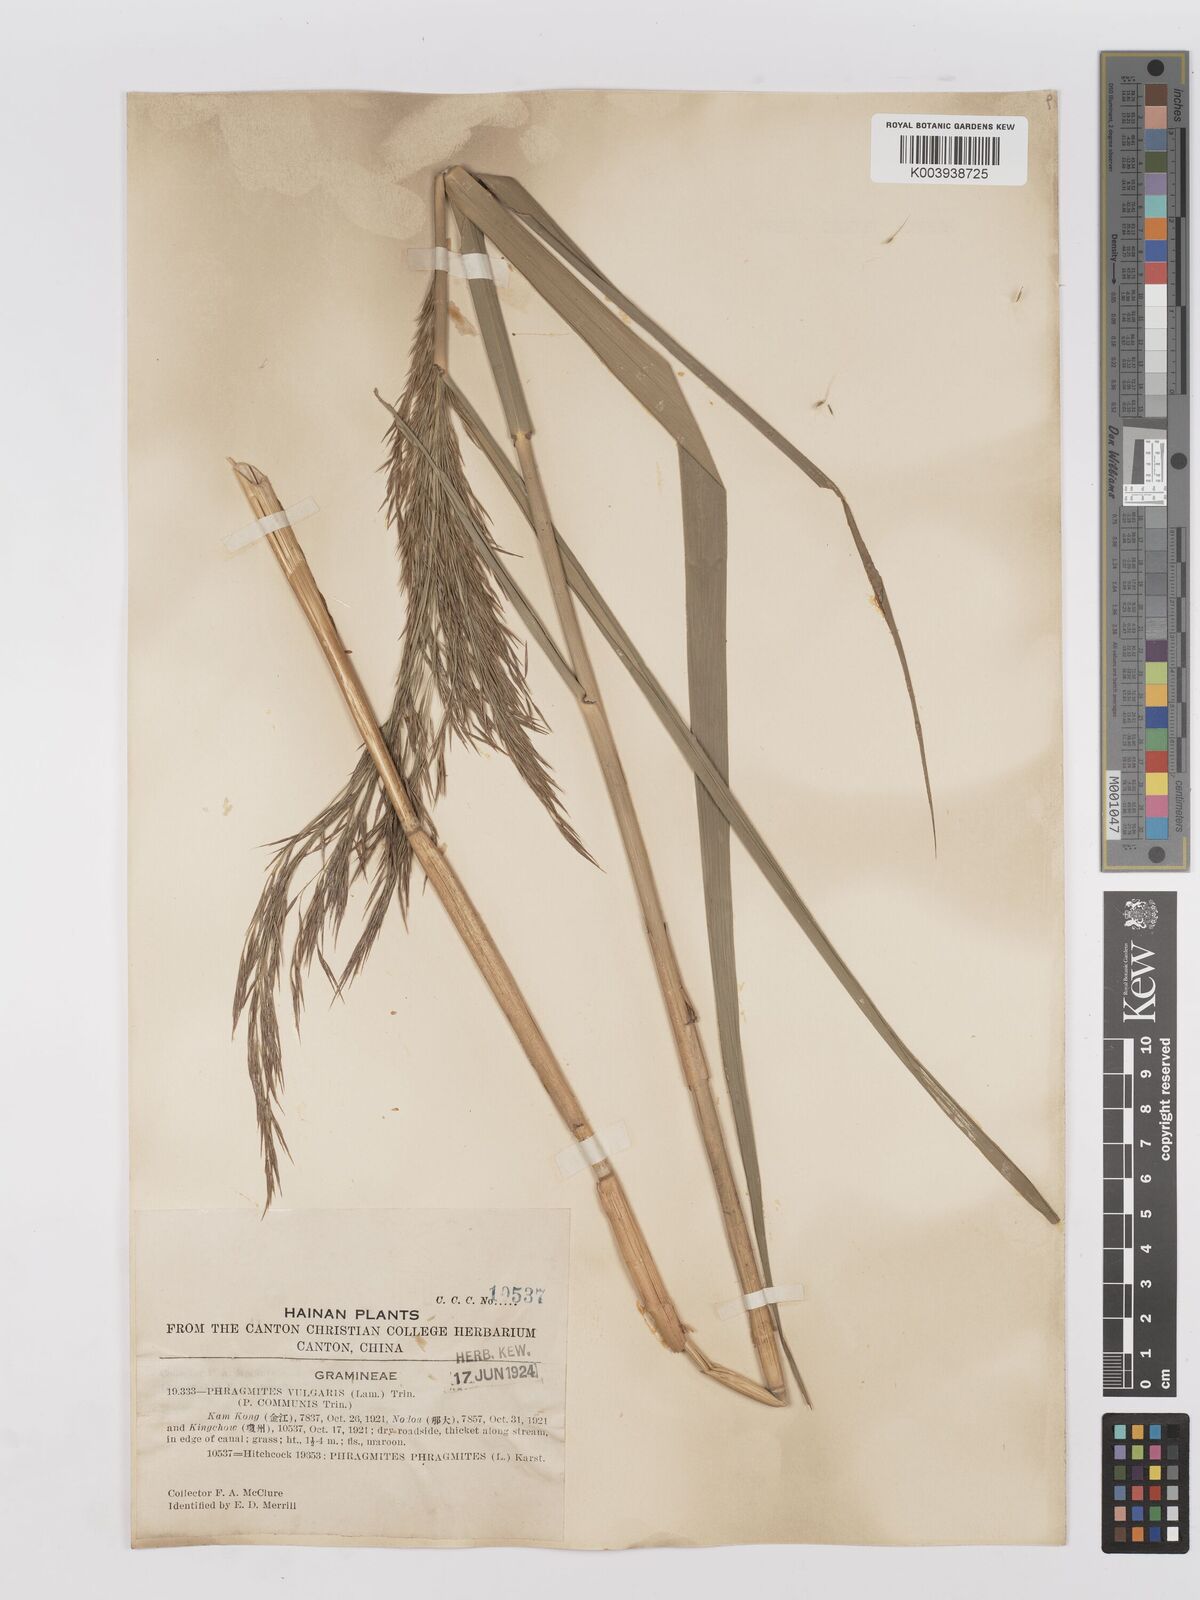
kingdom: Plantae
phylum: Tracheophyta
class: Liliopsida
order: Poales
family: Poaceae
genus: Phragmites
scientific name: Phragmites australis
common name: Common reed
